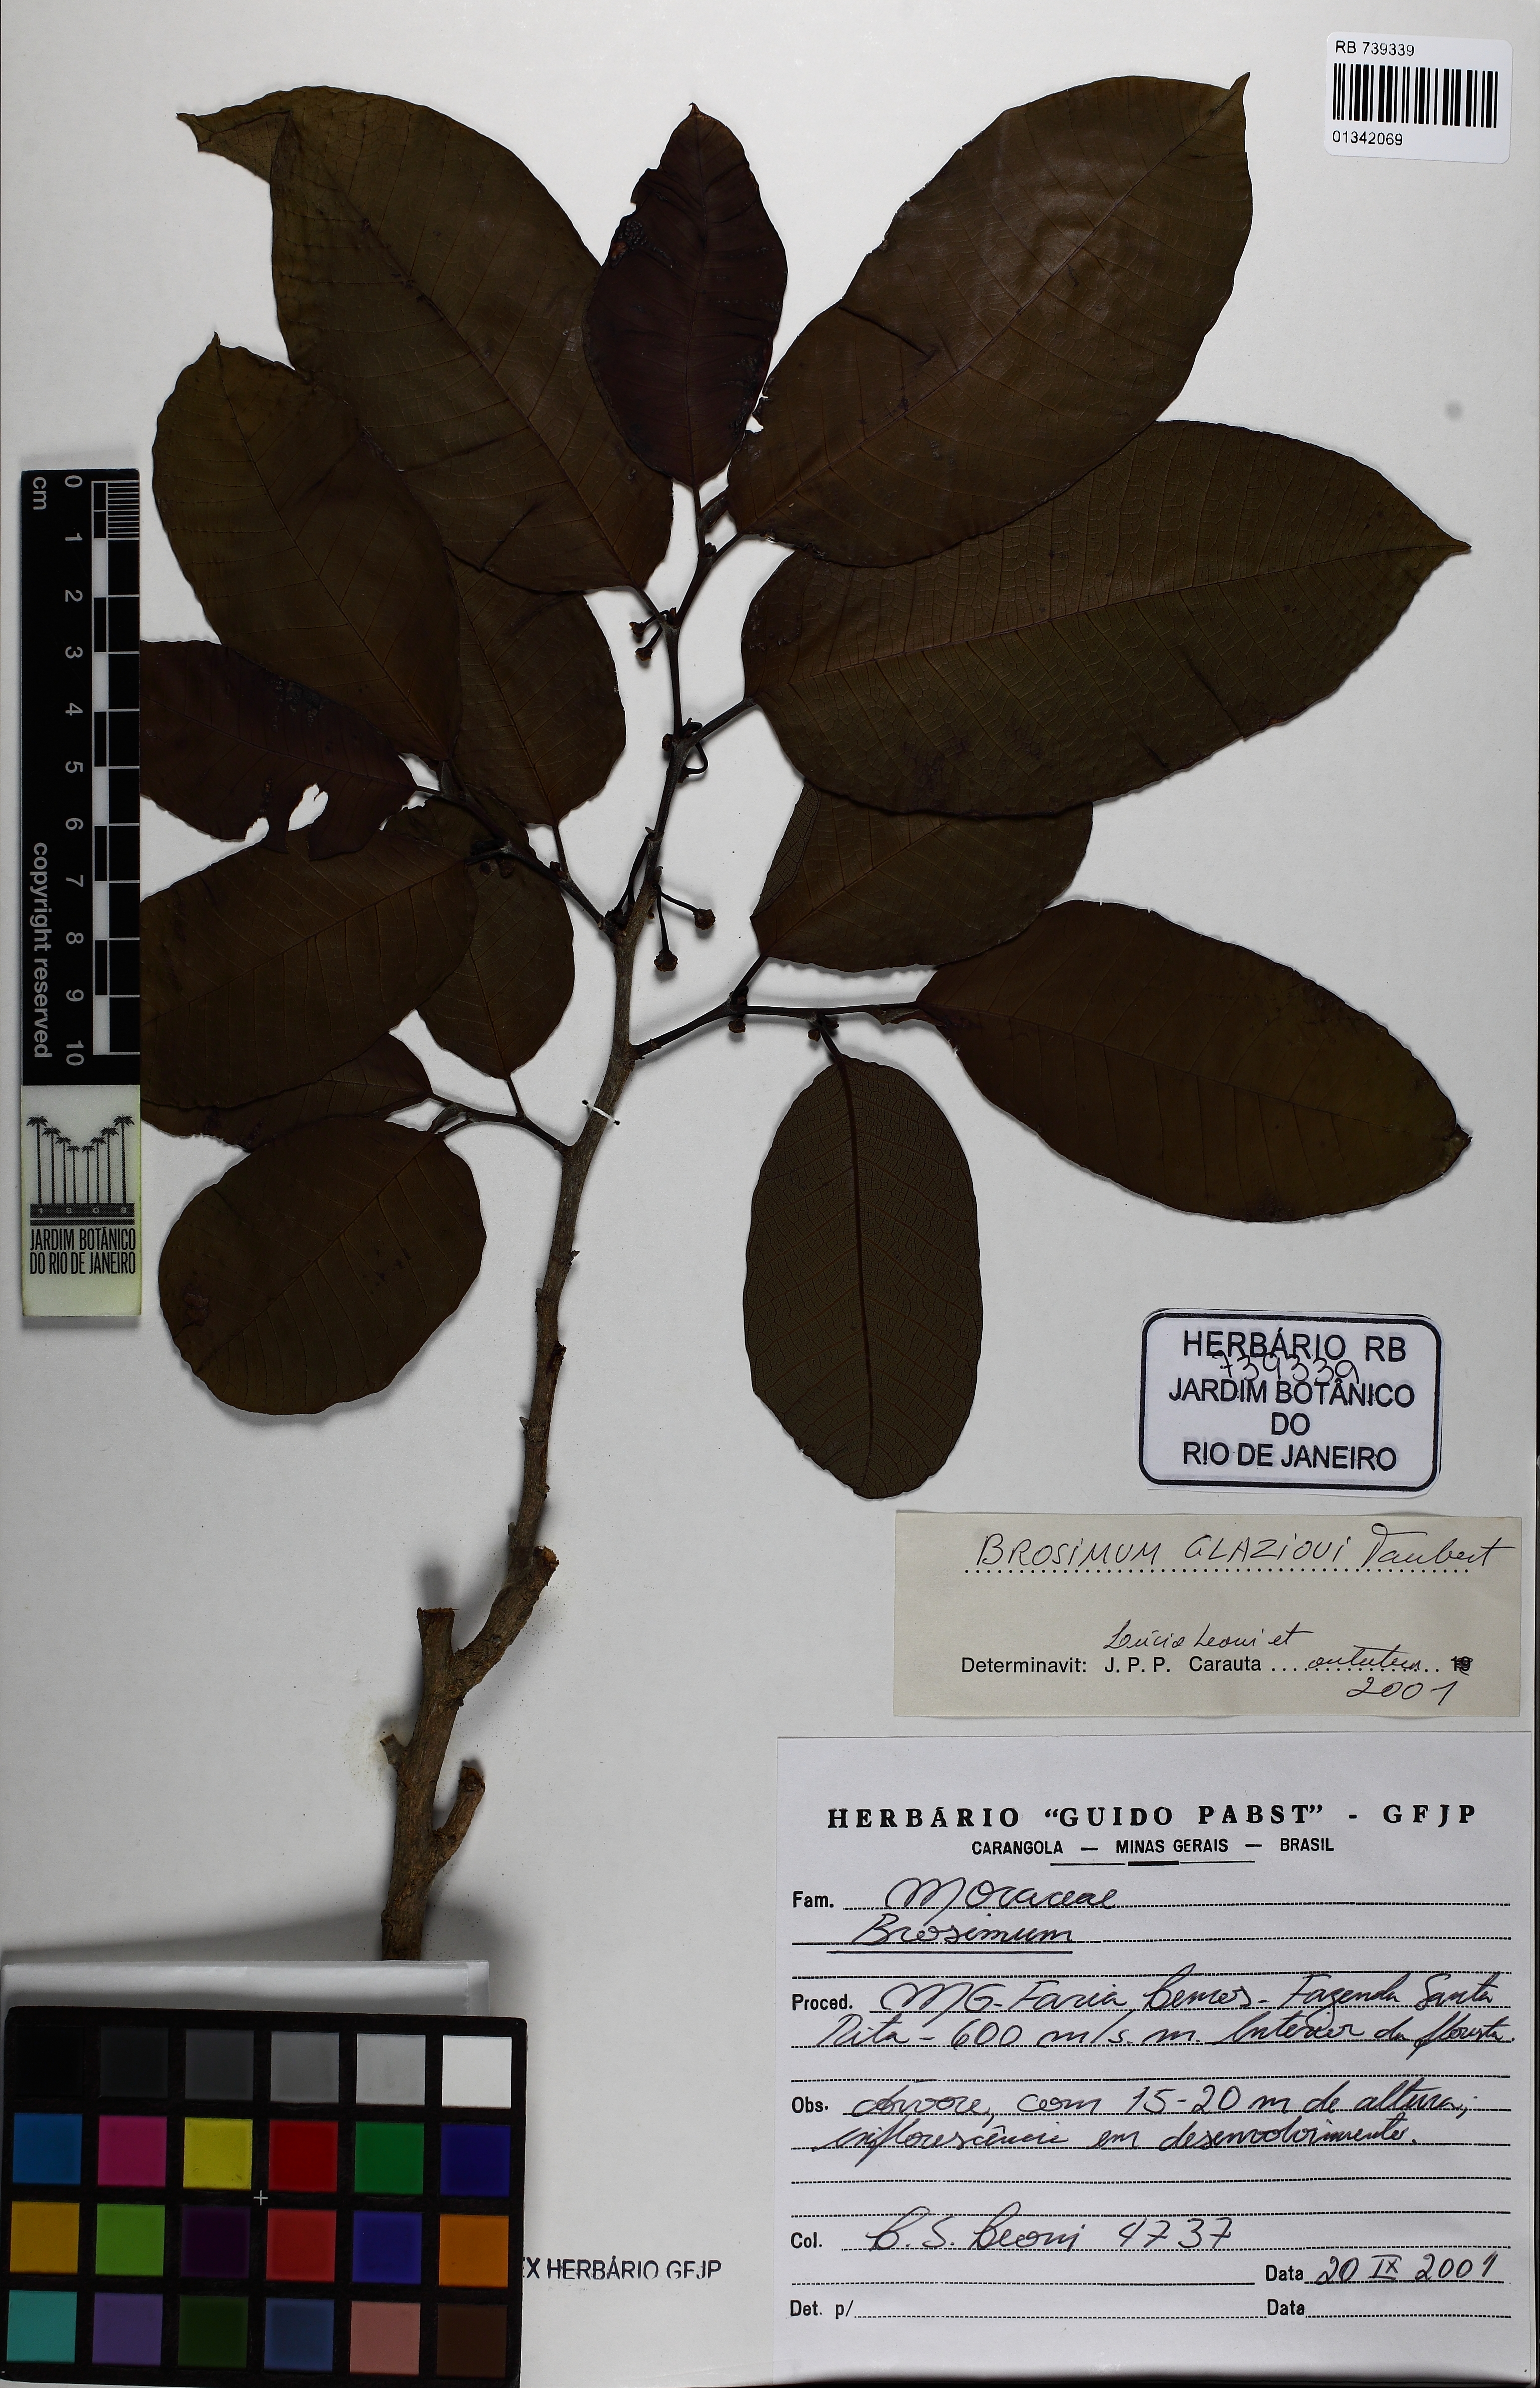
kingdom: Plantae
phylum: Tracheophyta
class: Magnoliopsida
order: Rosales
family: Moraceae
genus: Brosimum
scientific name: Brosimum glaziovii
